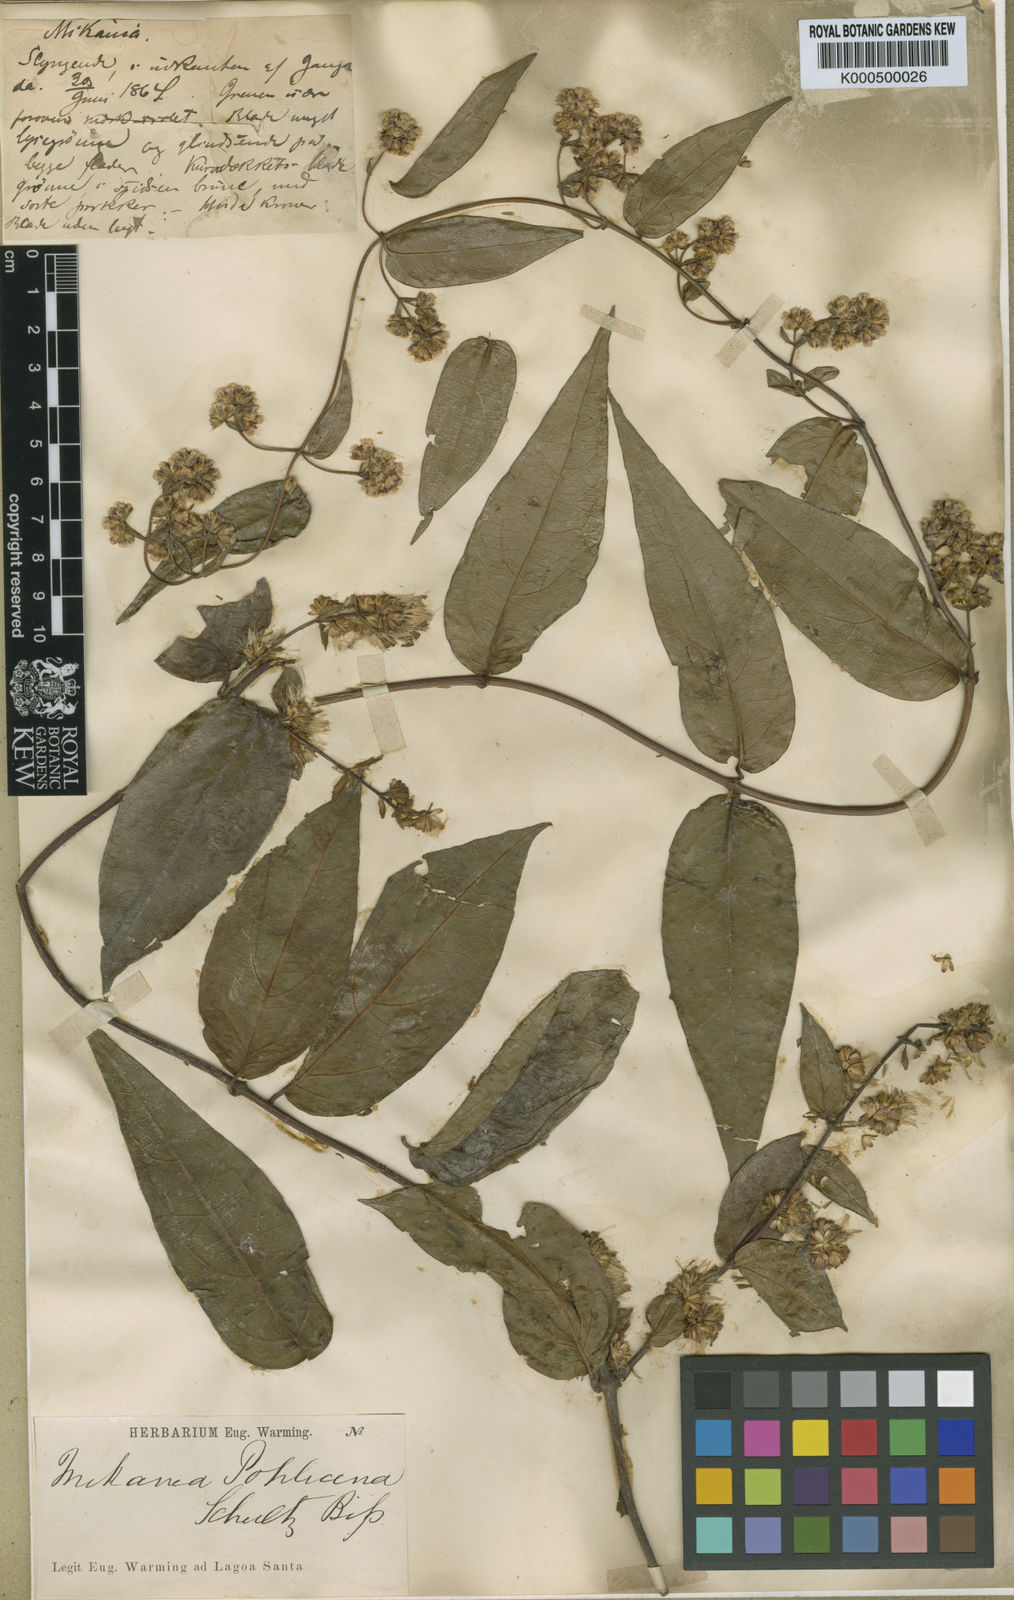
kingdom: Plantae
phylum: Tracheophyta
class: Magnoliopsida
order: Asterales
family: Asteraceae
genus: Mikania
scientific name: Mikania pohliana
